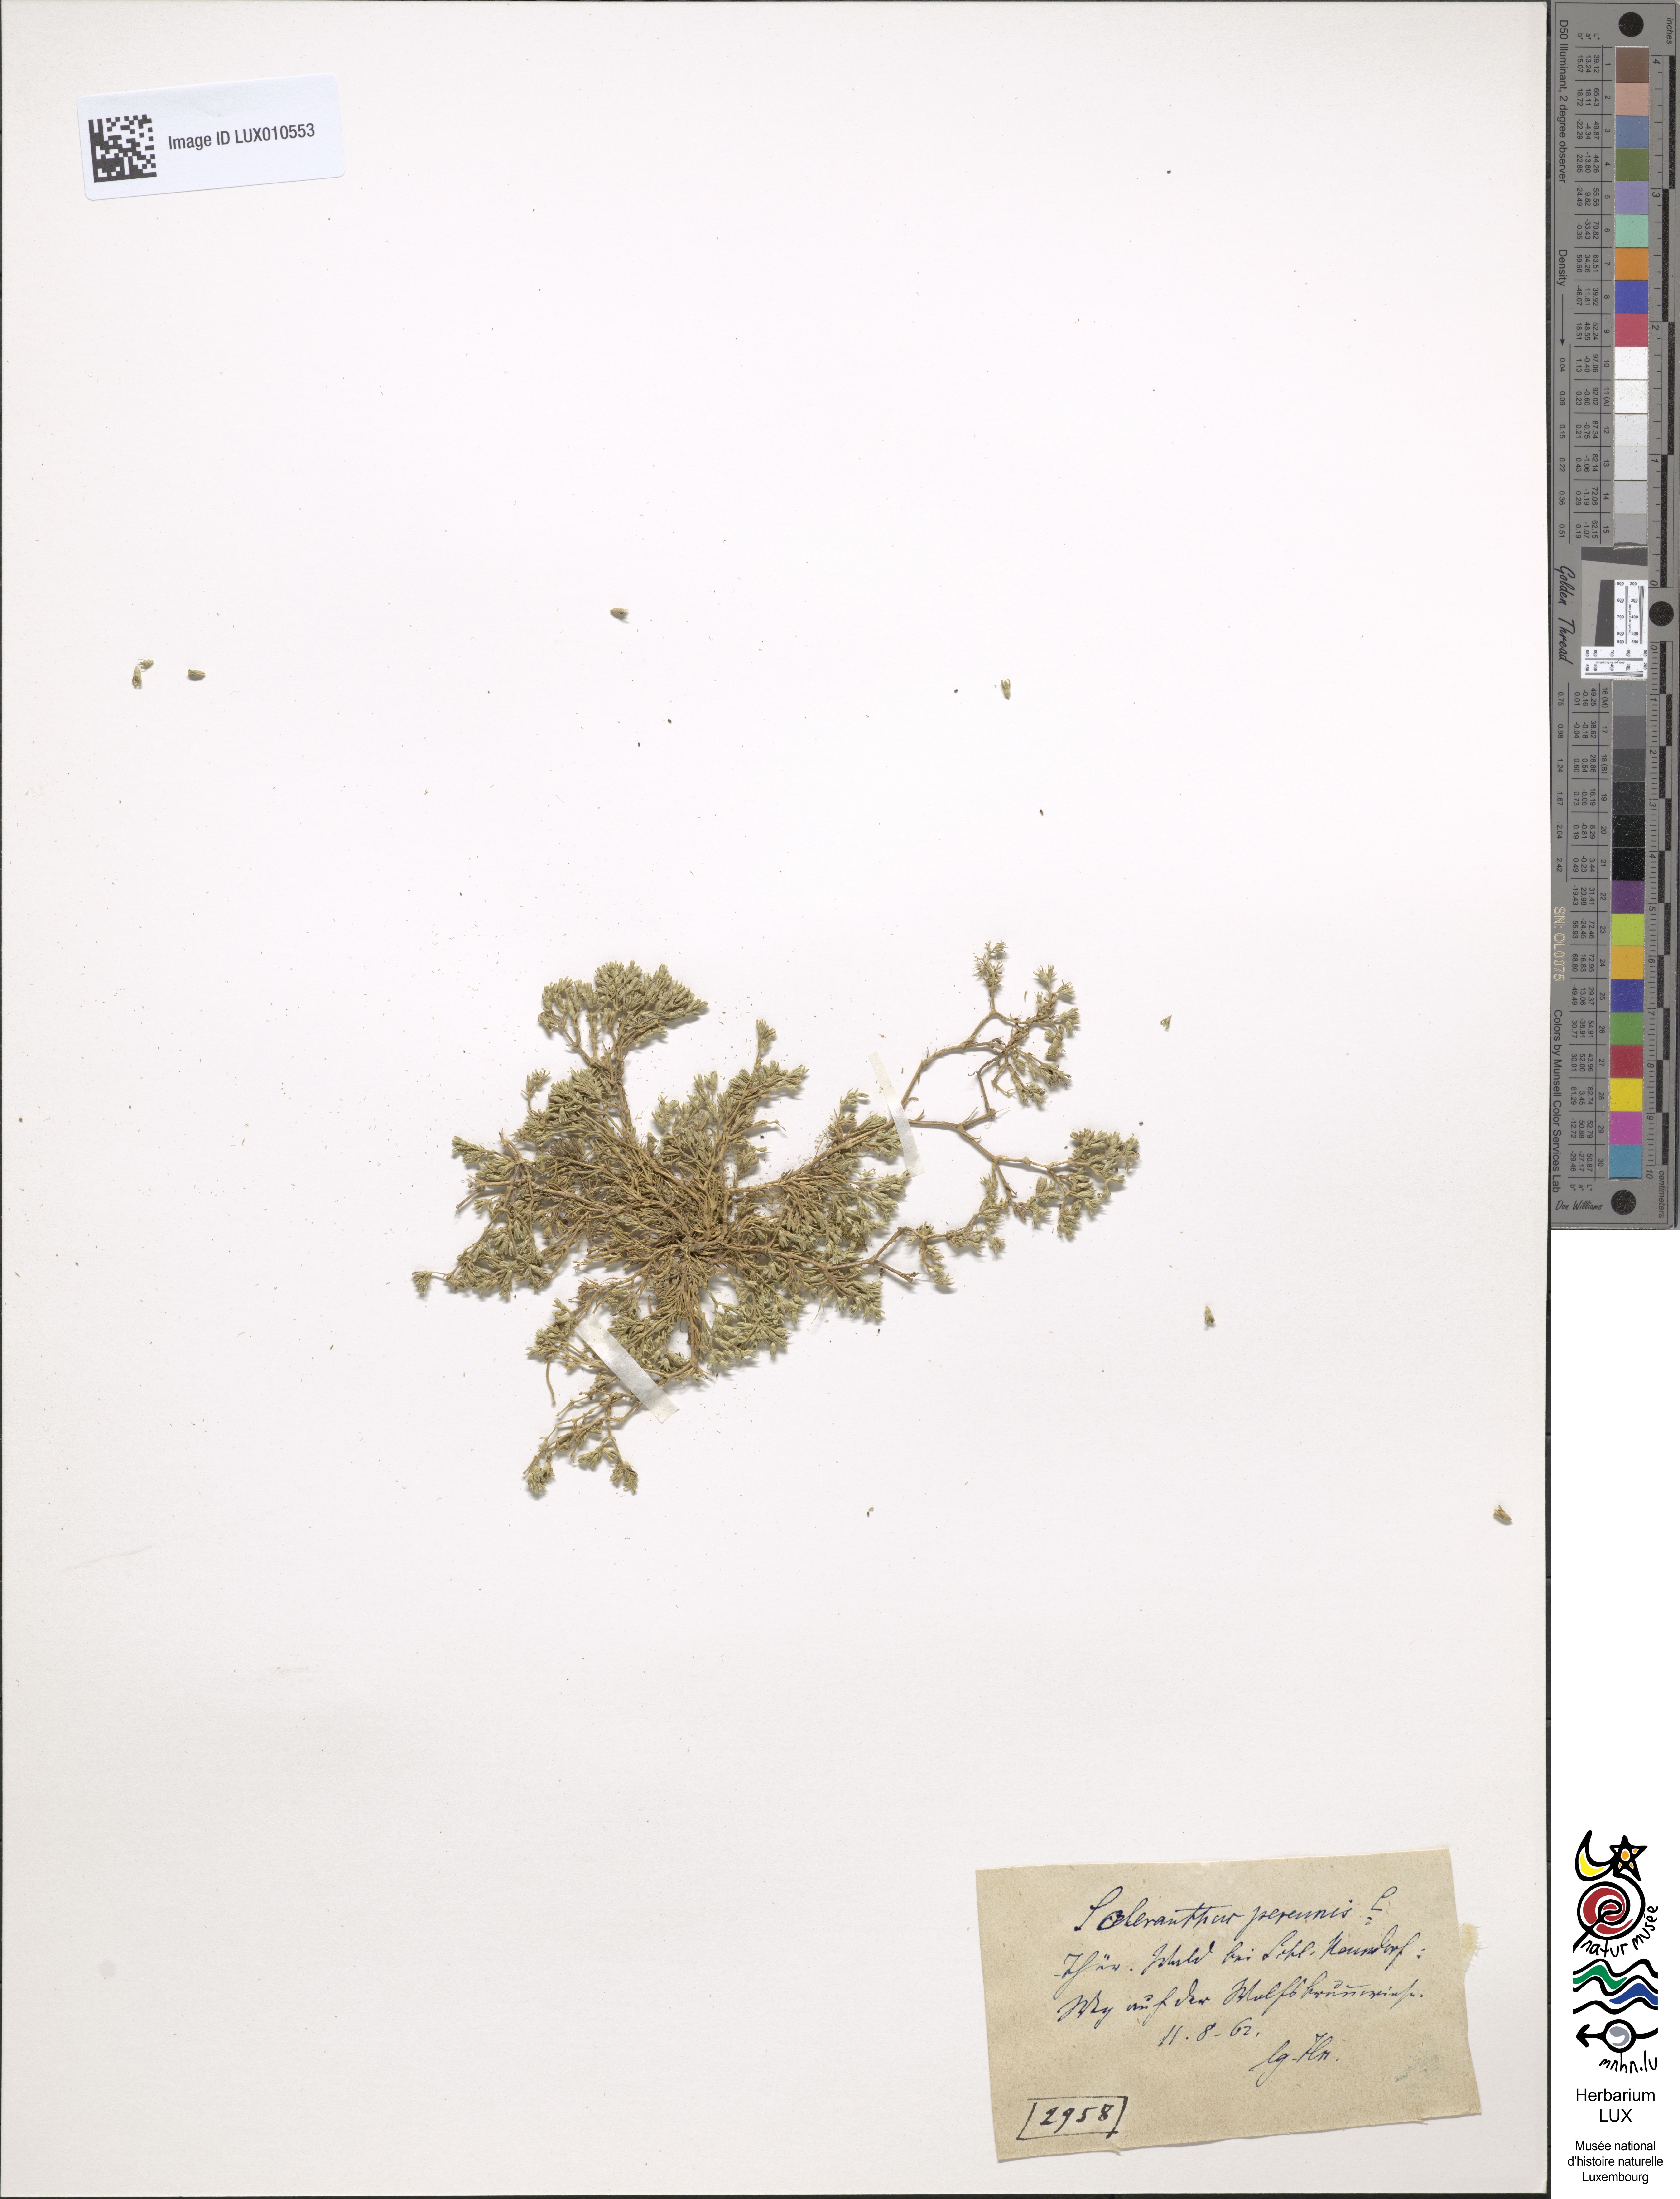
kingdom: Plantae
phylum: Tracheophyta
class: Magnoliopsida
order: Caryophyllales
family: Caryophyllaceae
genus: Scleranthus
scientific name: Scleranthus perennis
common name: Perennial knawel
